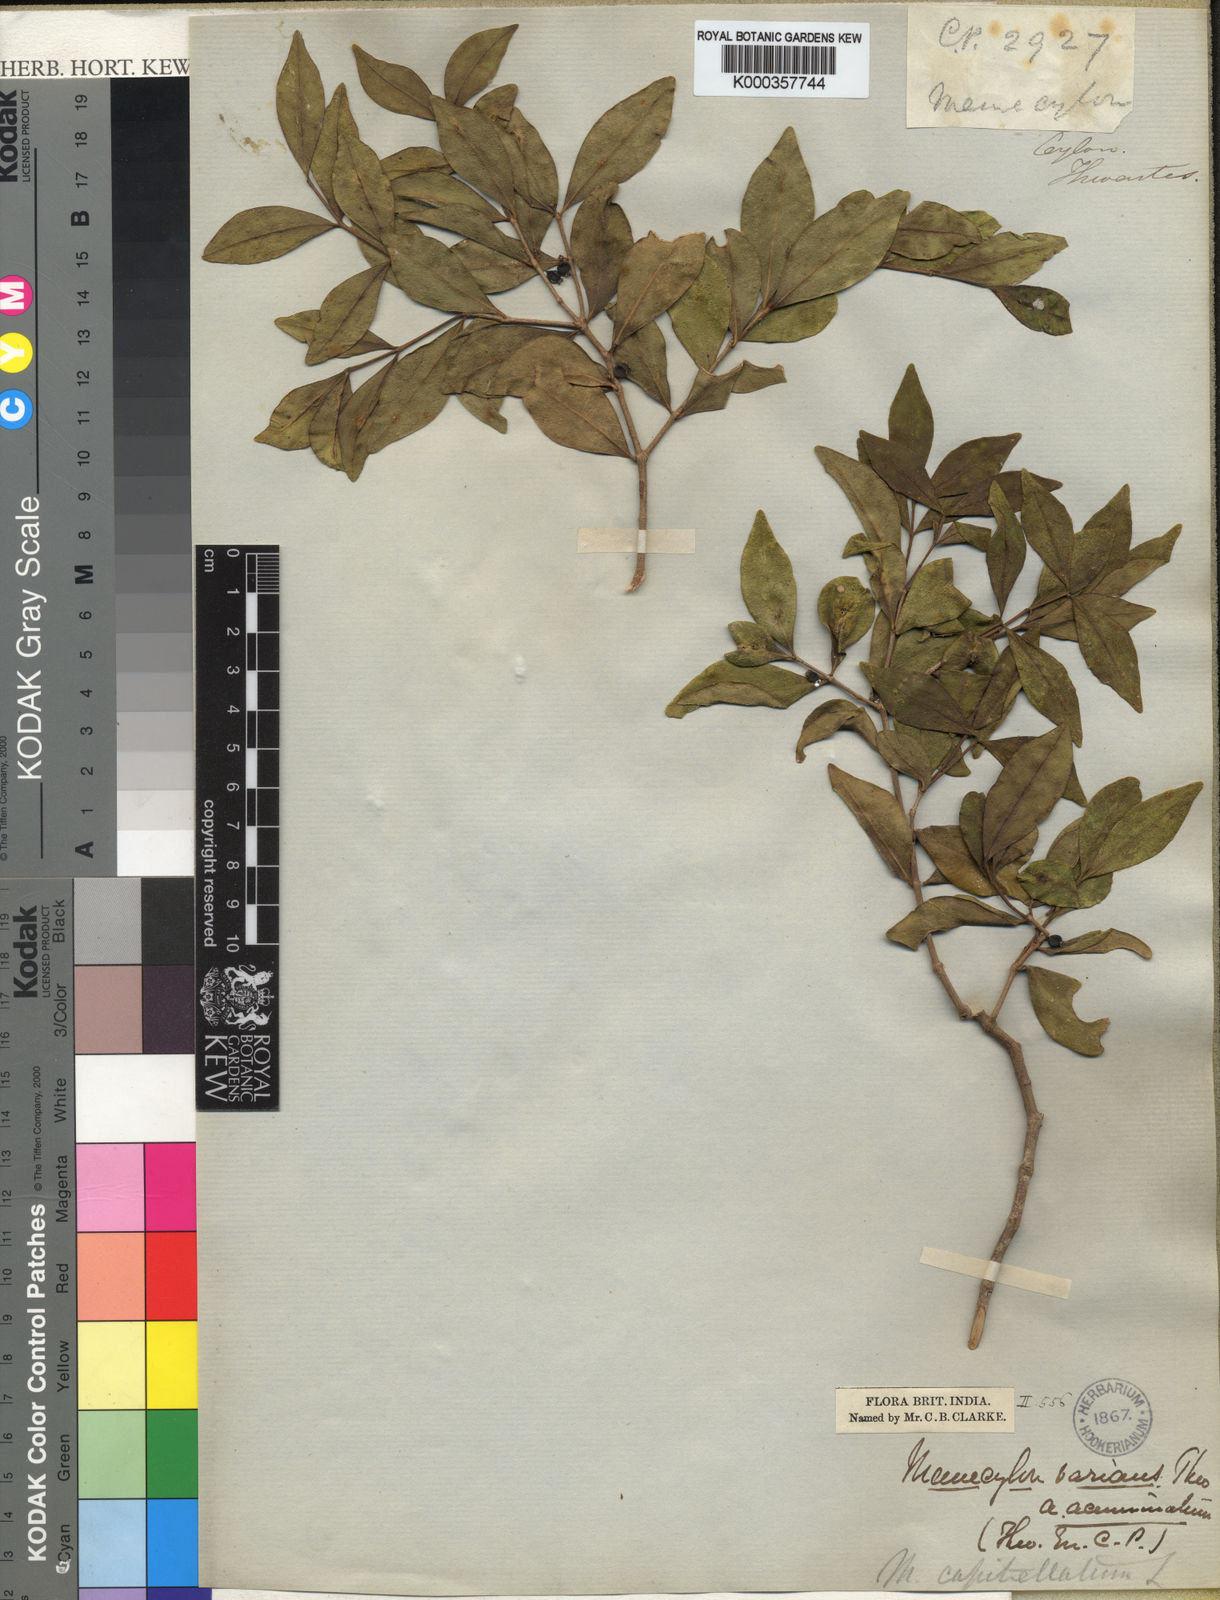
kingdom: Plantae
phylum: Tracheophyta
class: Magnoliopsida
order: Myrtales
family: Melastomataceae
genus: Memecylon
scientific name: Memecylon varians
